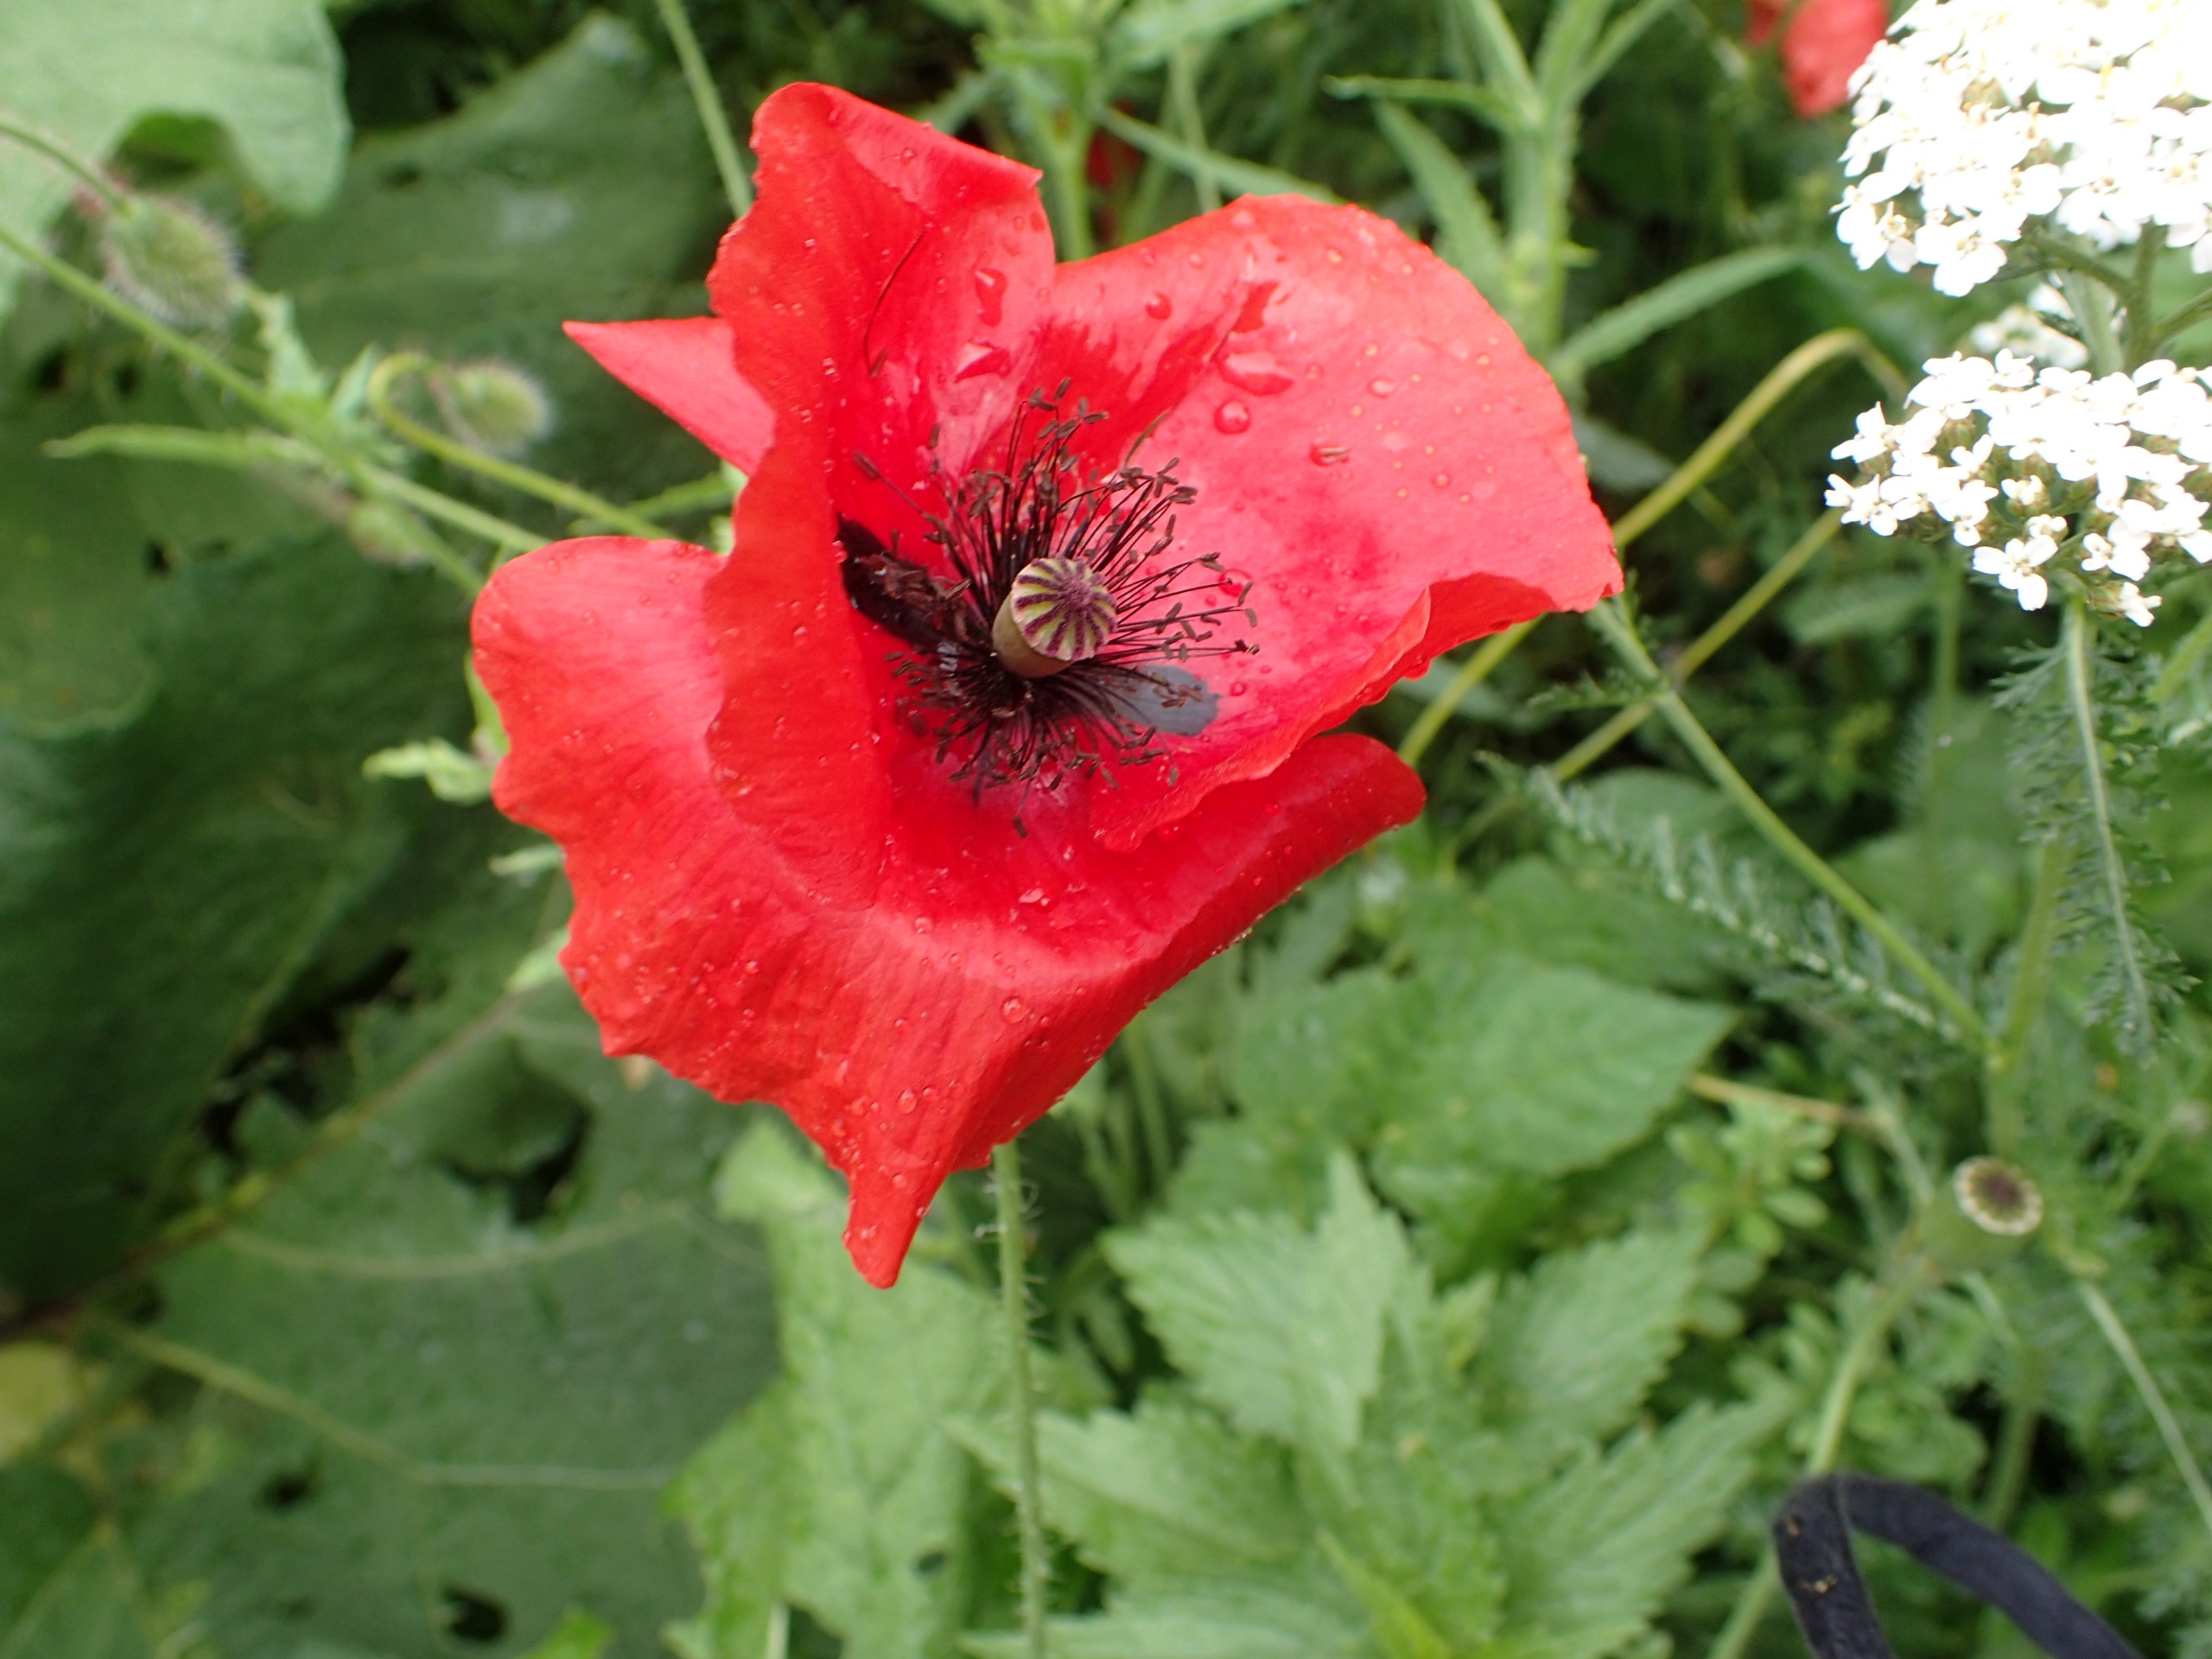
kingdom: Plantae
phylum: Tracheophyta
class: Magnoliopsida
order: Ranunculales
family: Papaveraceae
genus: Papaver
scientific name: Papaver rhoeas
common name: Korn-valmue
